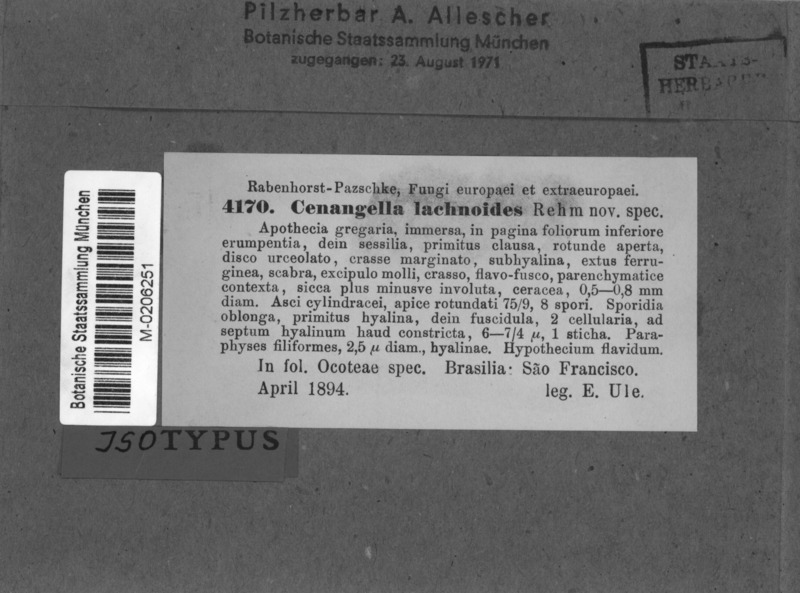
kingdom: Fungi
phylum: Ascomycota
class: Leotiomycetes
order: Helotiales
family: Helotiaceae
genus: Phaeofabraea
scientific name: Phaeofabraea lachnoides
